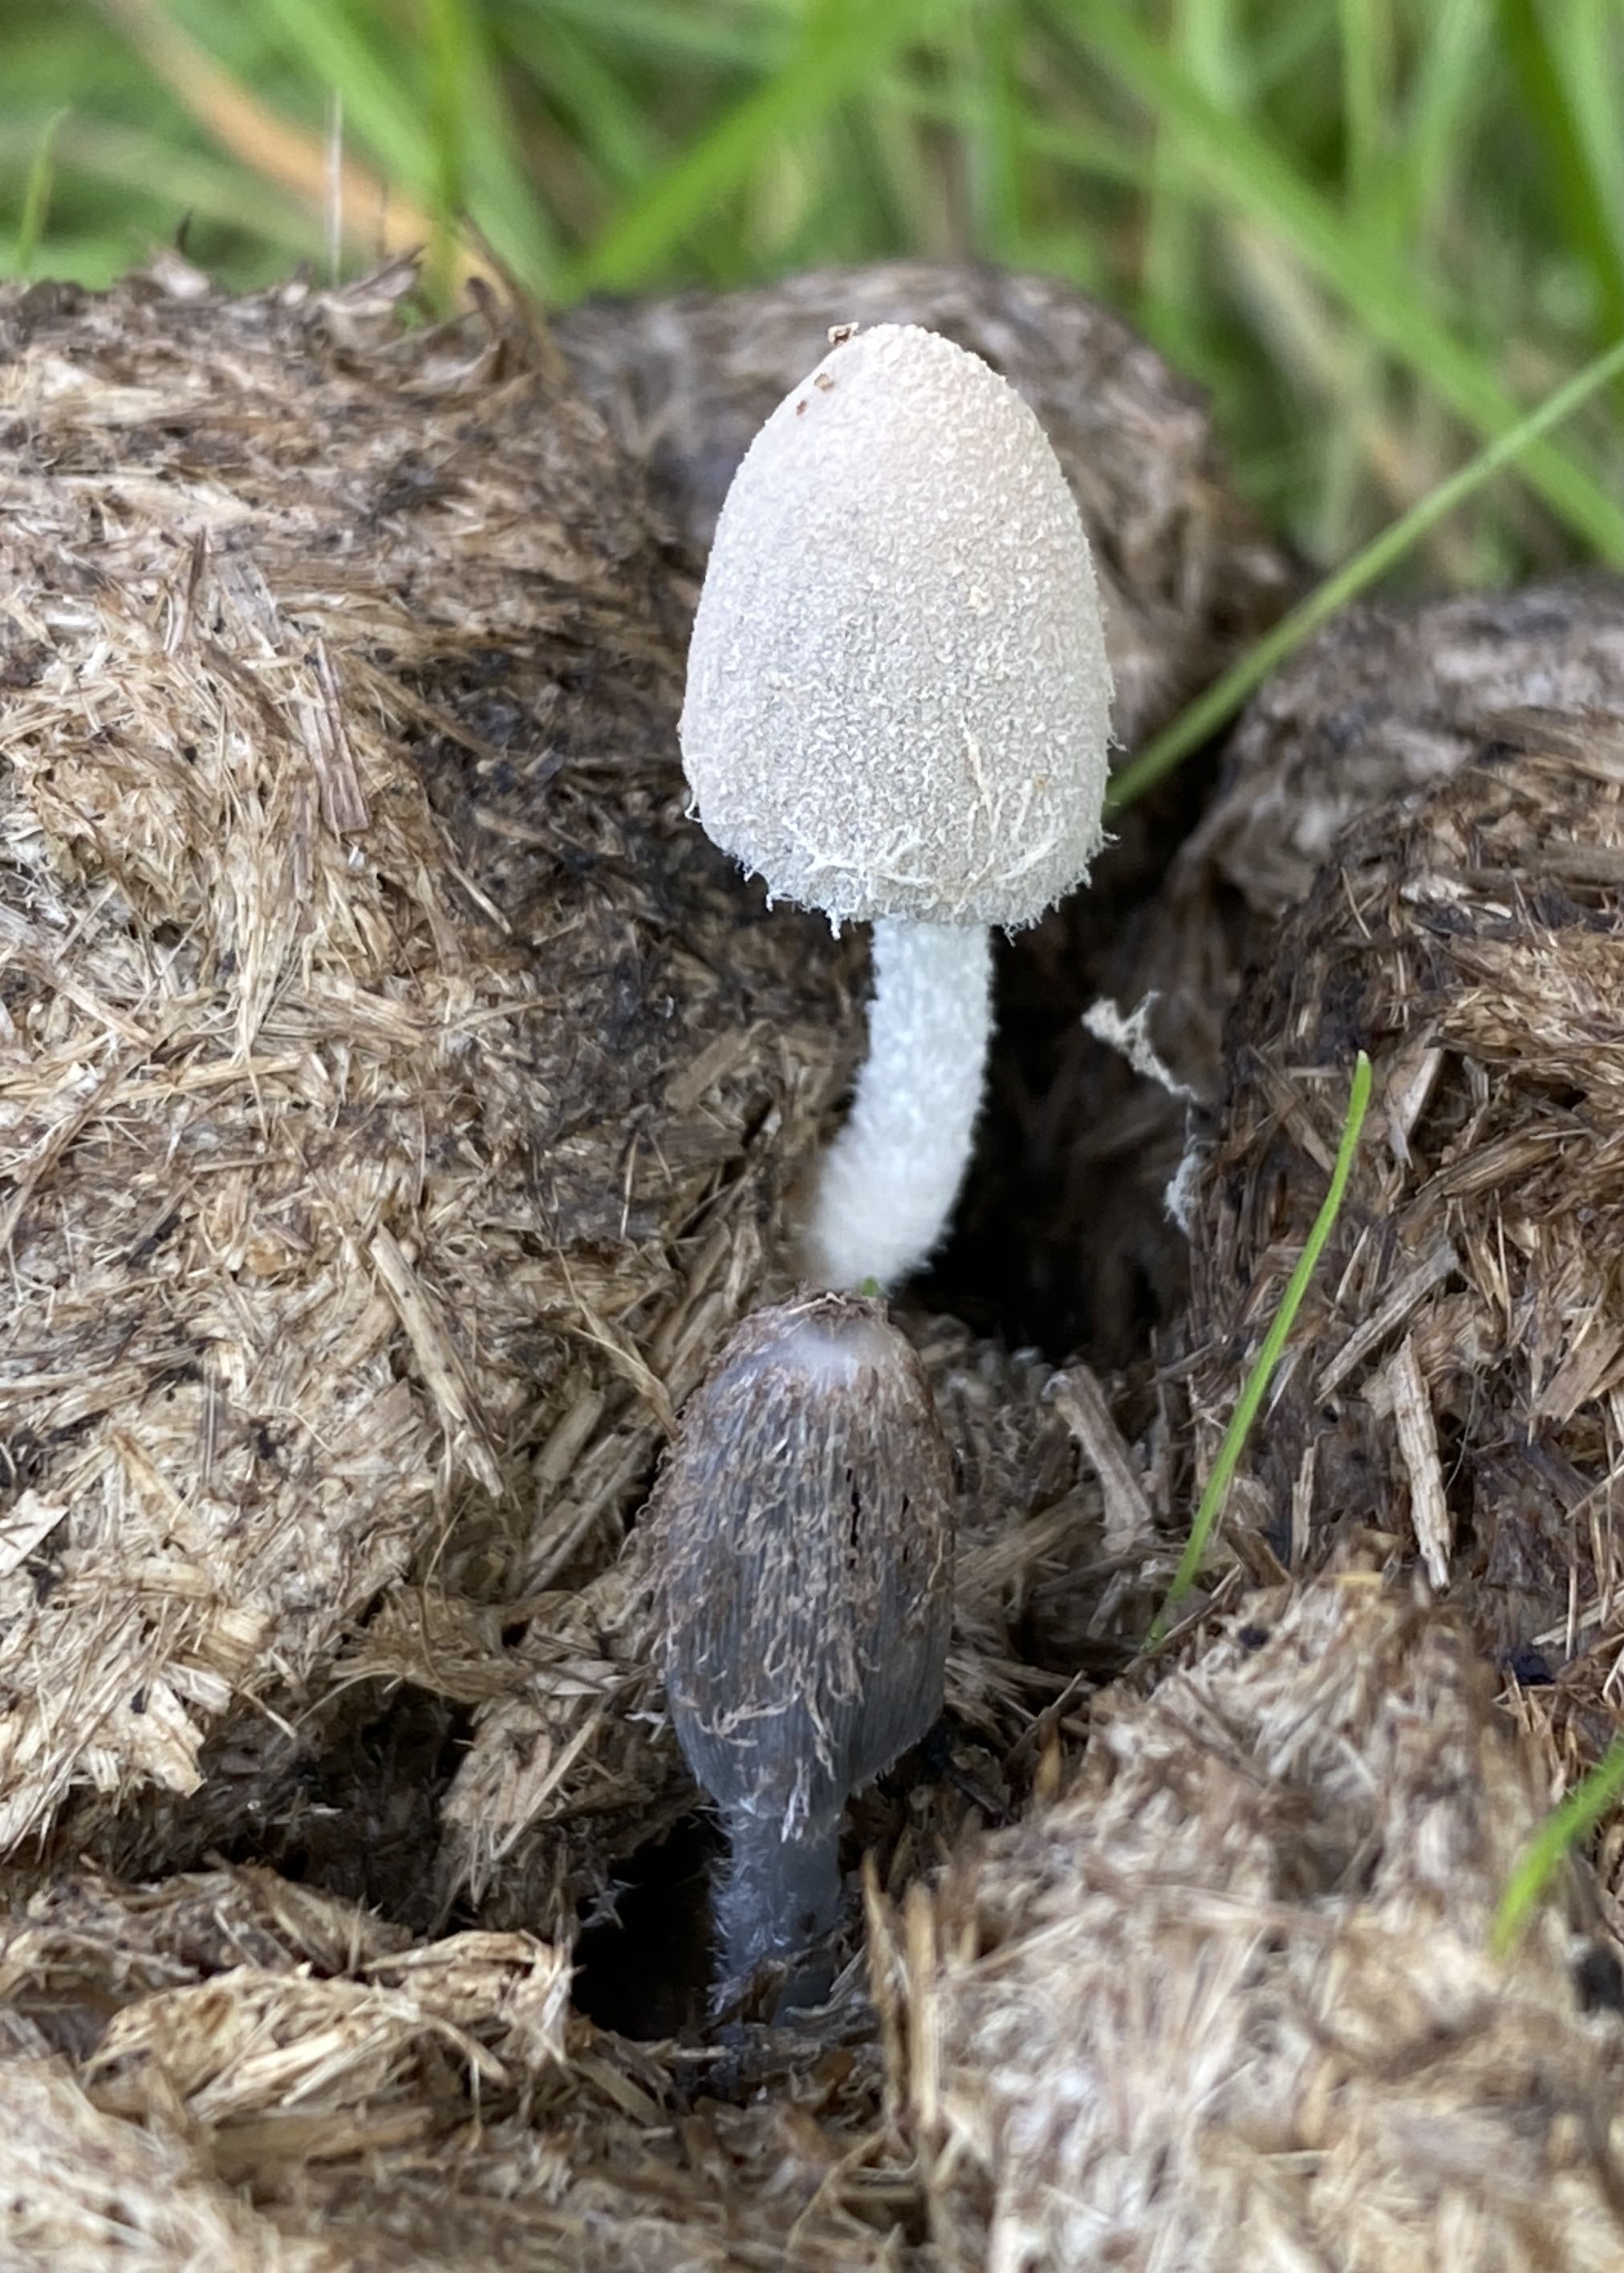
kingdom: Fungi
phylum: Basidiomycota
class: Agaricomycetes
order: Agaricales
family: Psathyrellaceae
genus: Coprinopsis
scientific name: Coprinopsis
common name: blækhat
